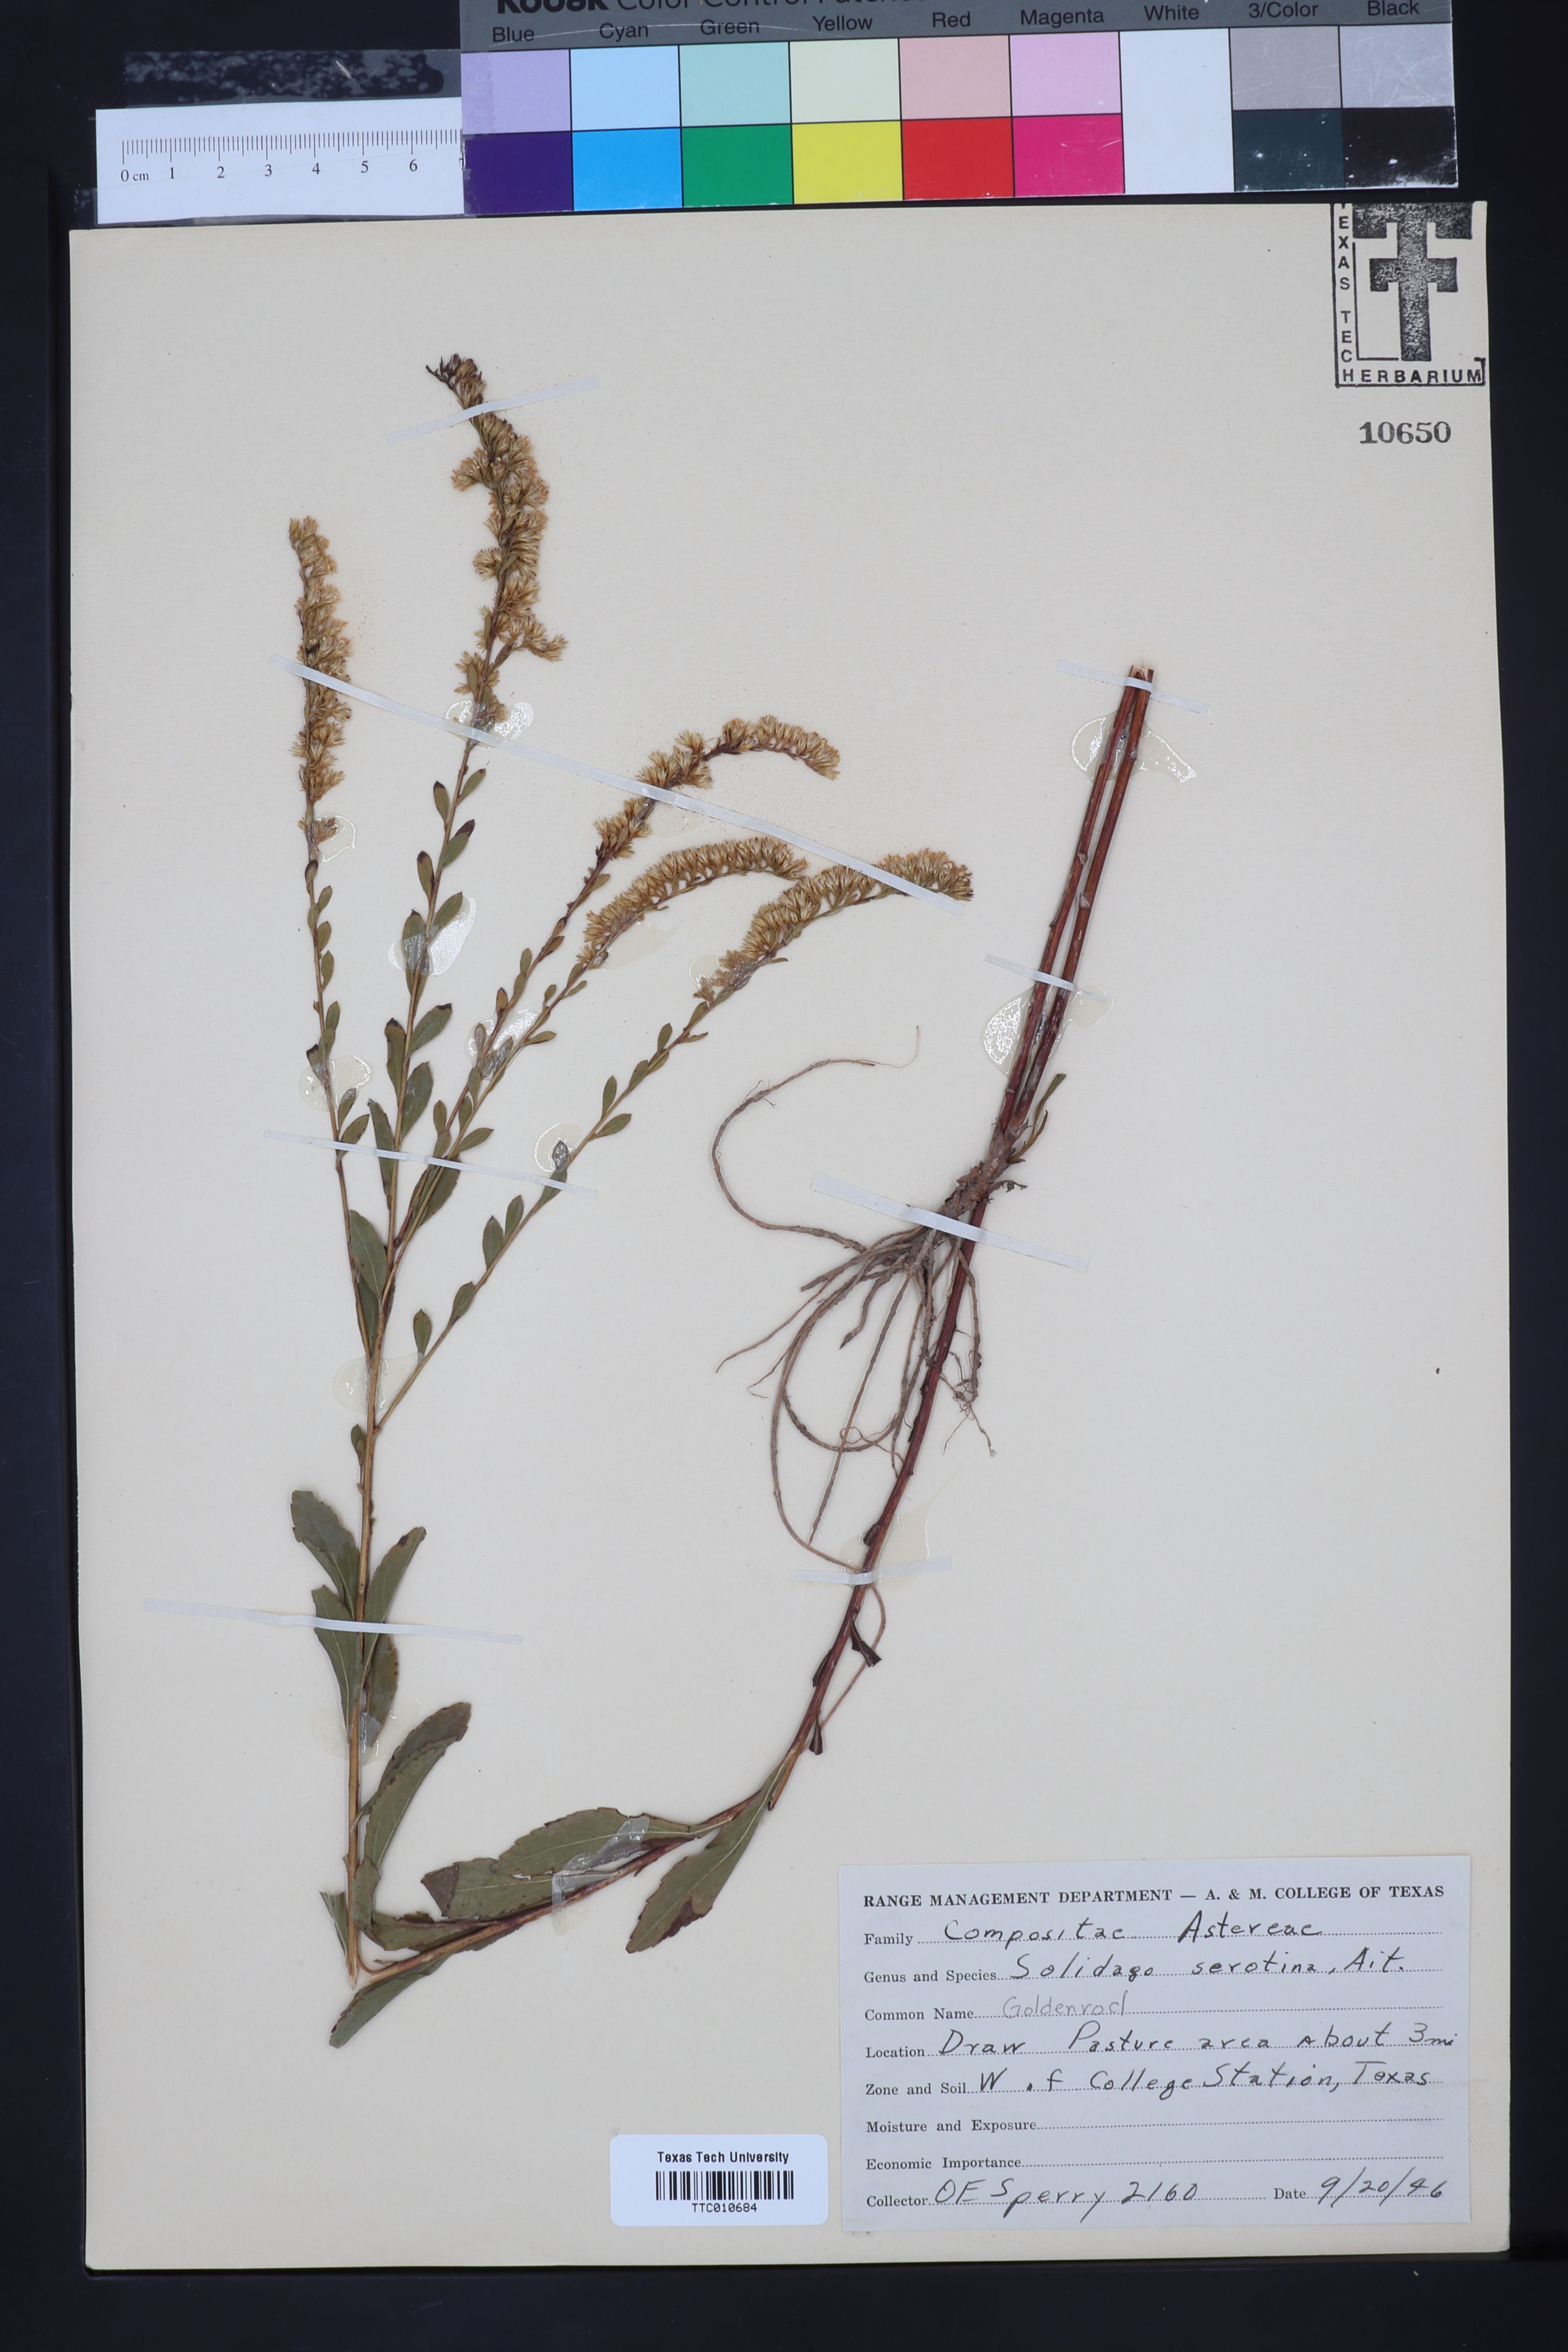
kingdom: Plantae
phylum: Tracheophyta
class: Magnoliopsida
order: Asterales
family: Asteraceae
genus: Solidago
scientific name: Solidago gigantea
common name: Giant goldenrod
